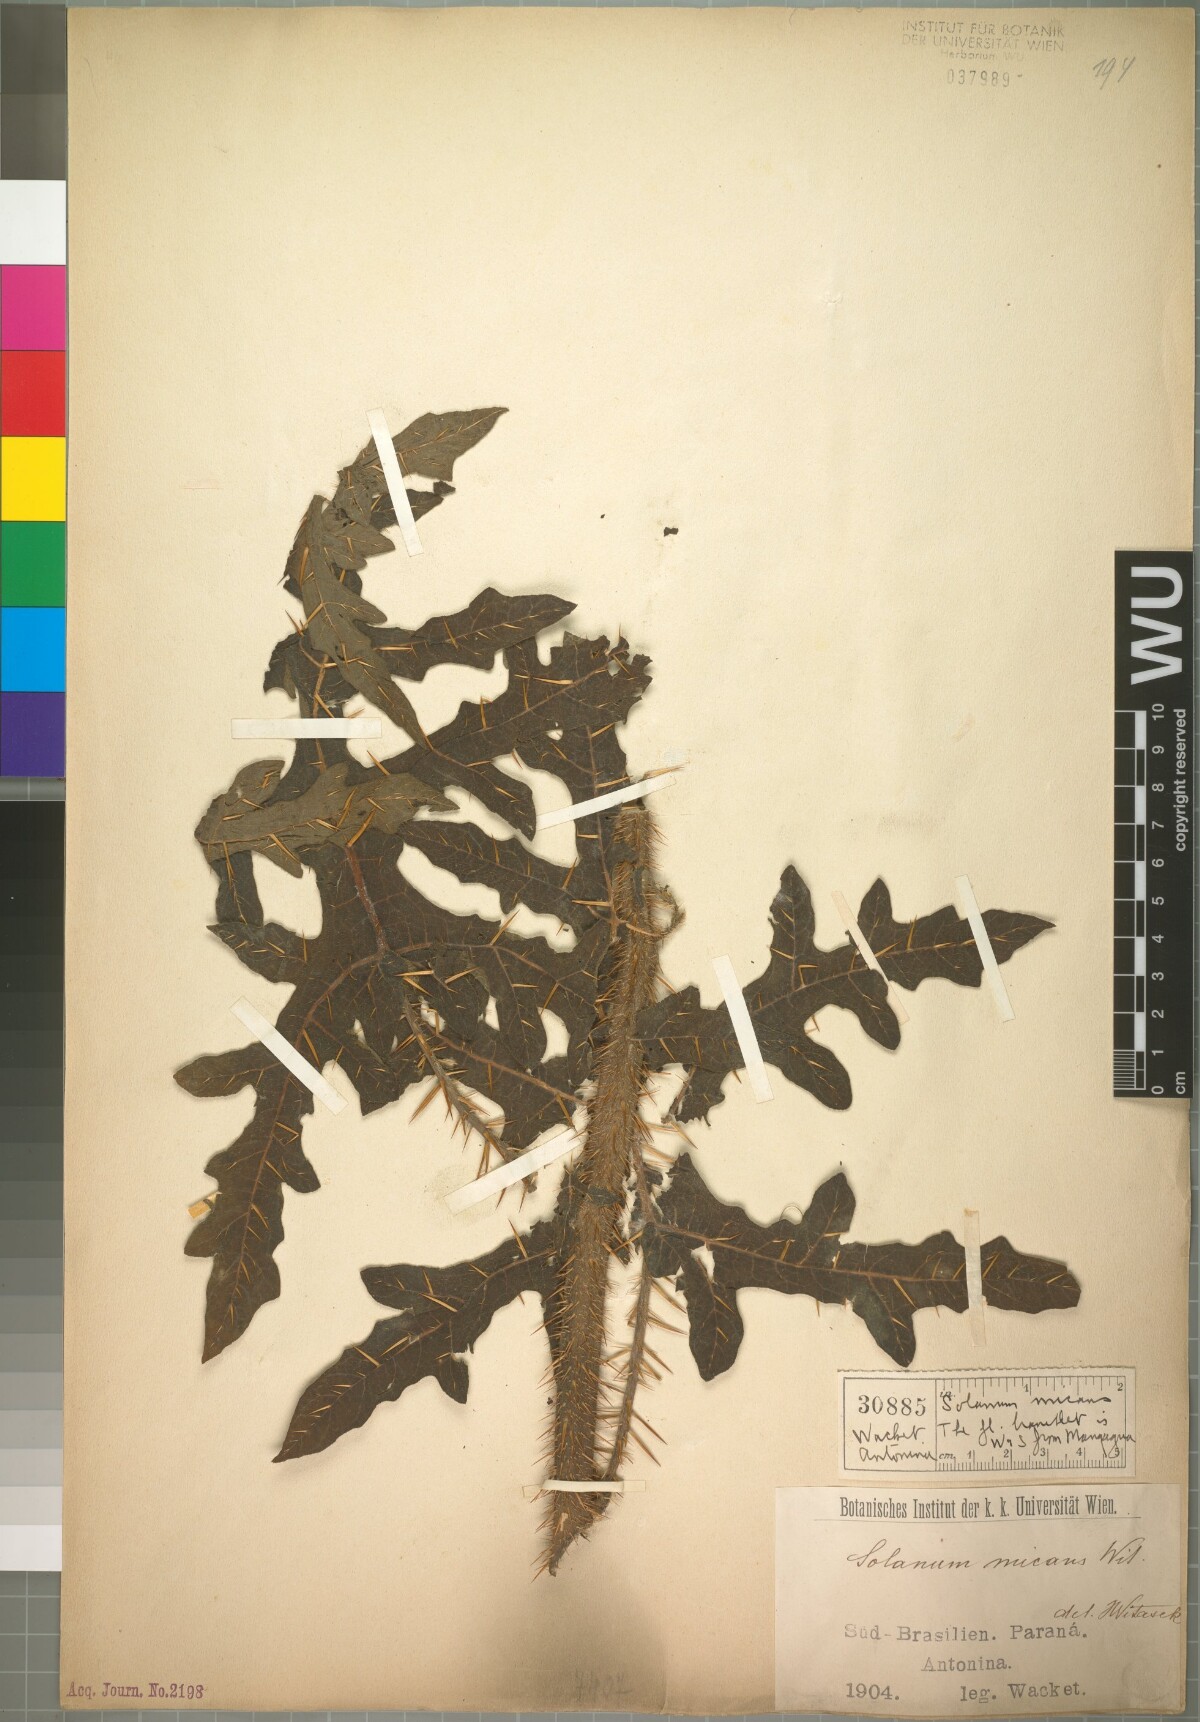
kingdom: Plantae
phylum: Tracheophyta
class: Magnoliopsida
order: Solanales
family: Solanaceae
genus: Solanum
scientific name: Solanum affine
